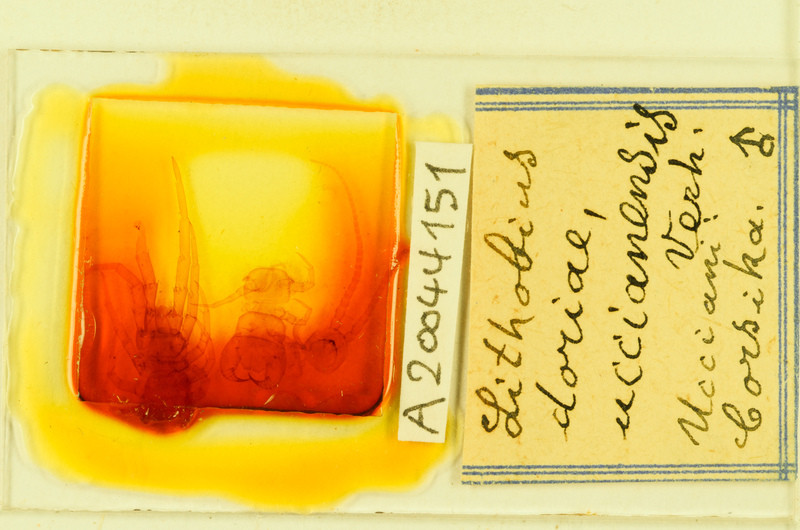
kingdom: Animalia
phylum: Arthropoda
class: Chilopoda
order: Lithobiomorpha
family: Lithobiidae
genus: Lithobius
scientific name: Lithobius pilicornis
